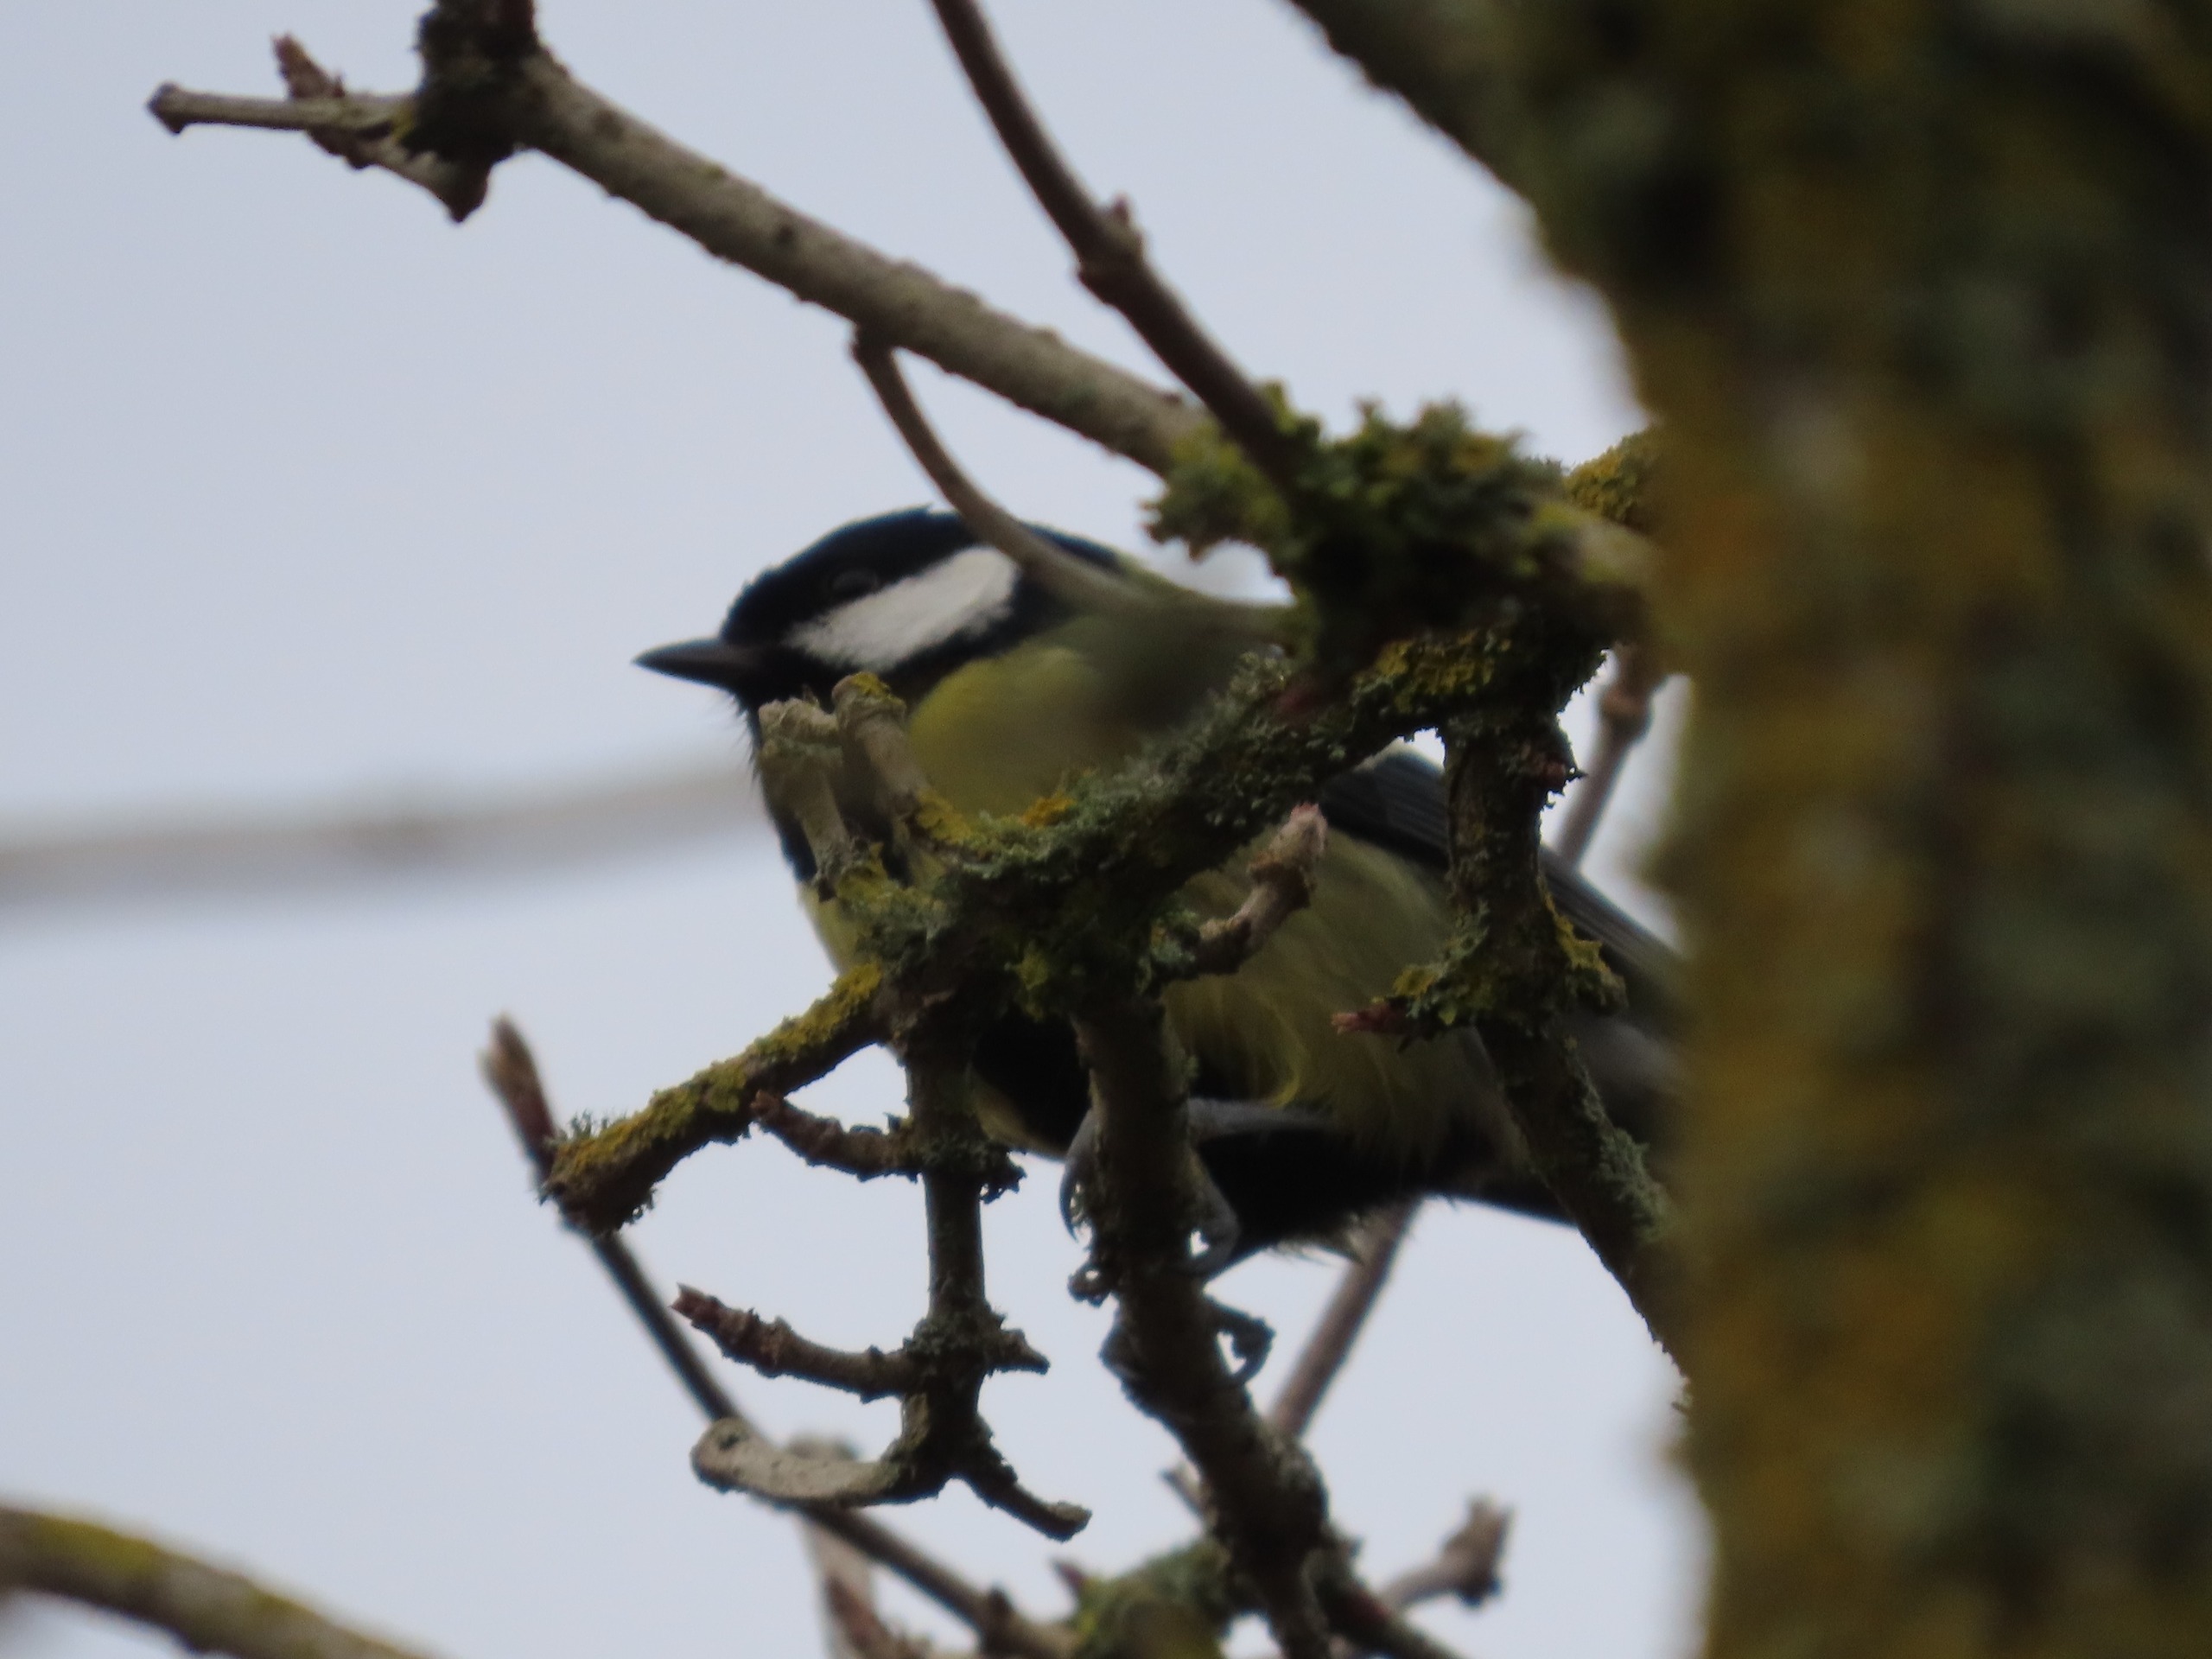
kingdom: Animalia
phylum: Chordata
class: Aves
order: Passeriformes
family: Paridae
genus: Parus
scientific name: Parus major
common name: Musvit
